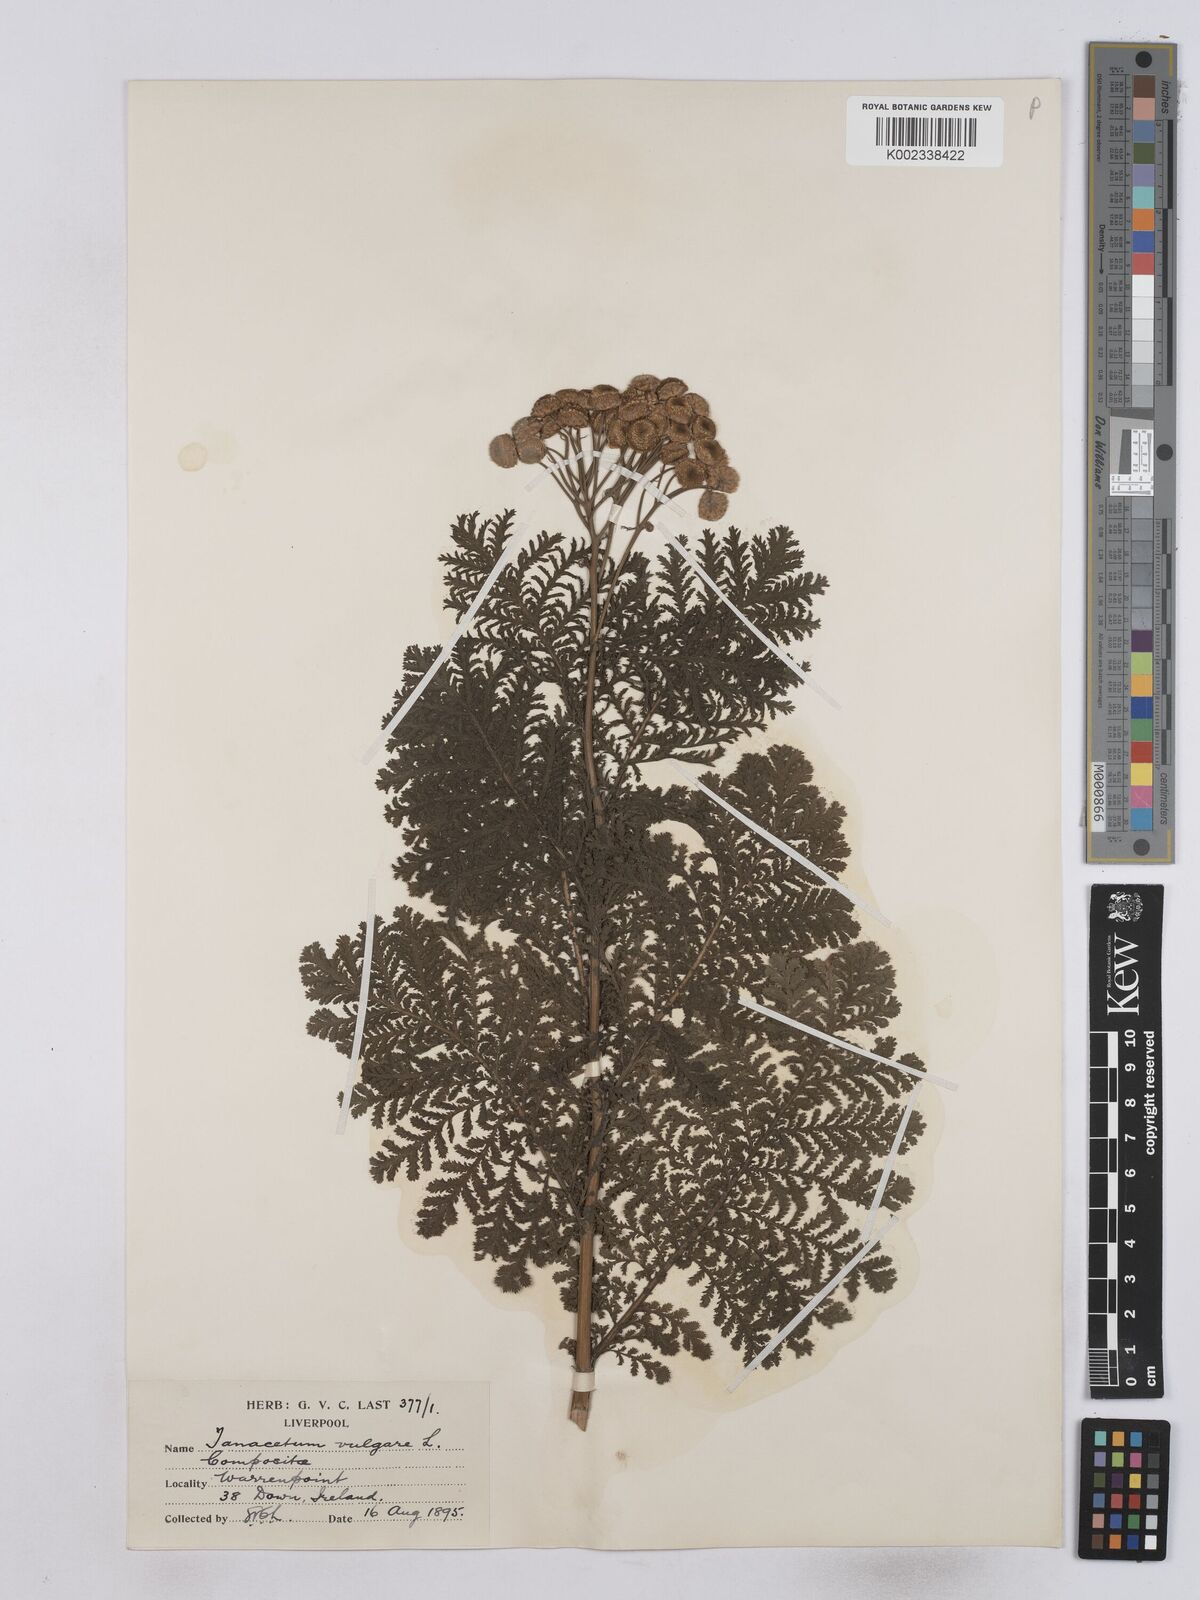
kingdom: Plantae
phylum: Tracheophyta
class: Magnoliopsida
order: Asterales
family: Asteraceae
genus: Tanacetum
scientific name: Tanacetum vulgare
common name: Common tansy
